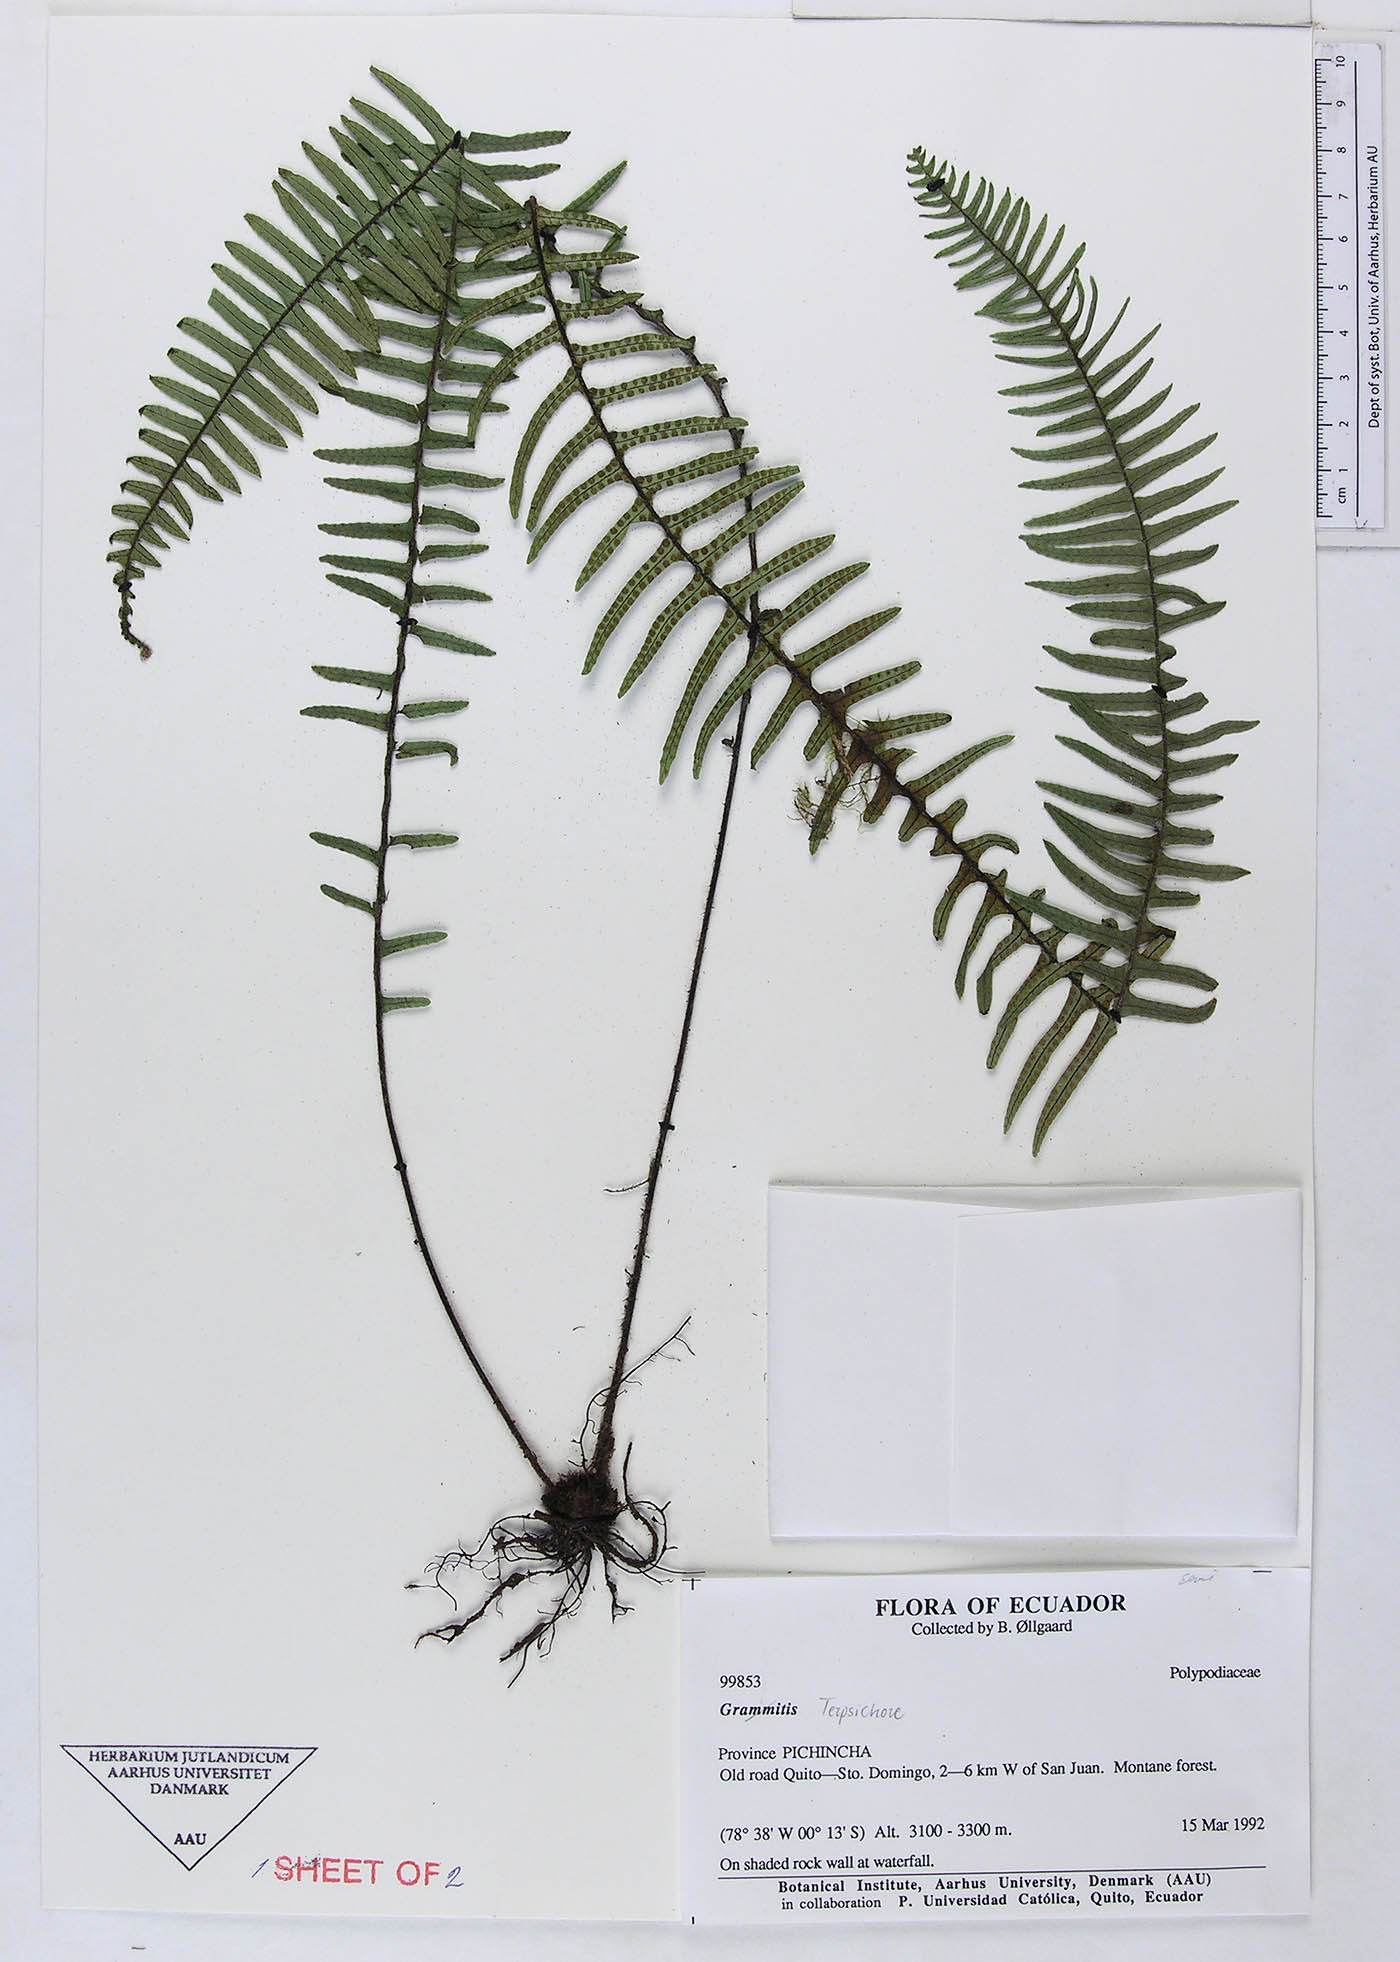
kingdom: Plantae
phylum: Tracheophyta
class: Polypodiopsida
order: Polypodiales
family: Polypodiaceae
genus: Grammitis
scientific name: Grammitis
